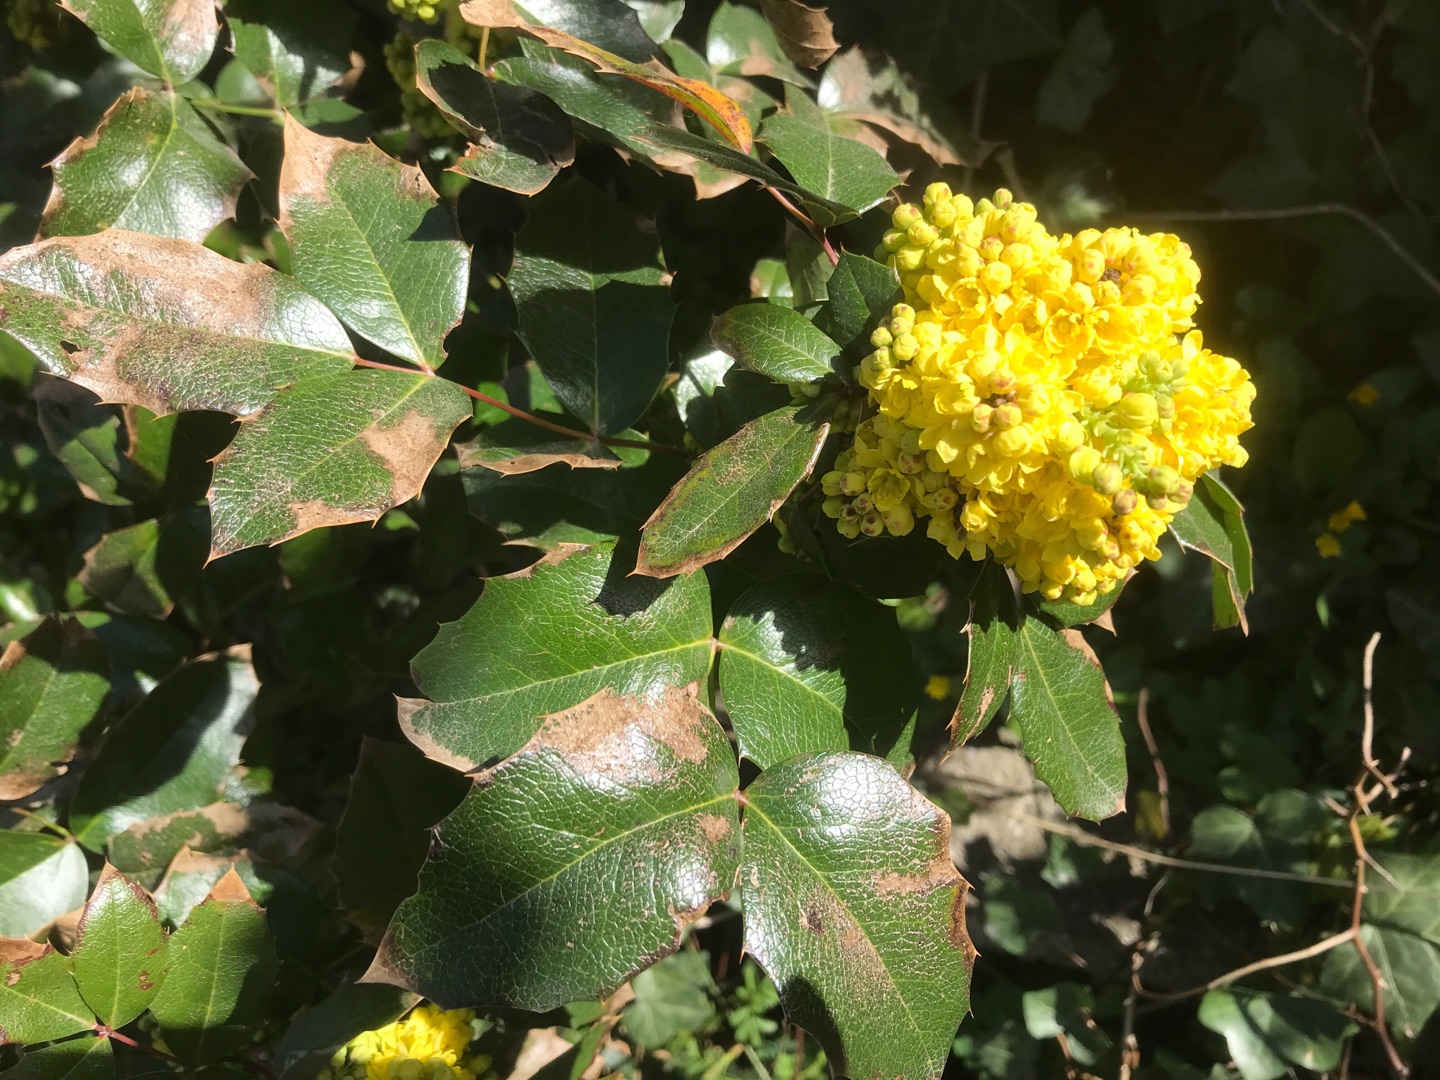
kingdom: Plantae
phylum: Tracheophyta
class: Magnoliopsida
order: Ranunculales
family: Berberidaceae
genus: Mahonia
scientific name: Mahonia aquifolium
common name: Almindelig mahonie
